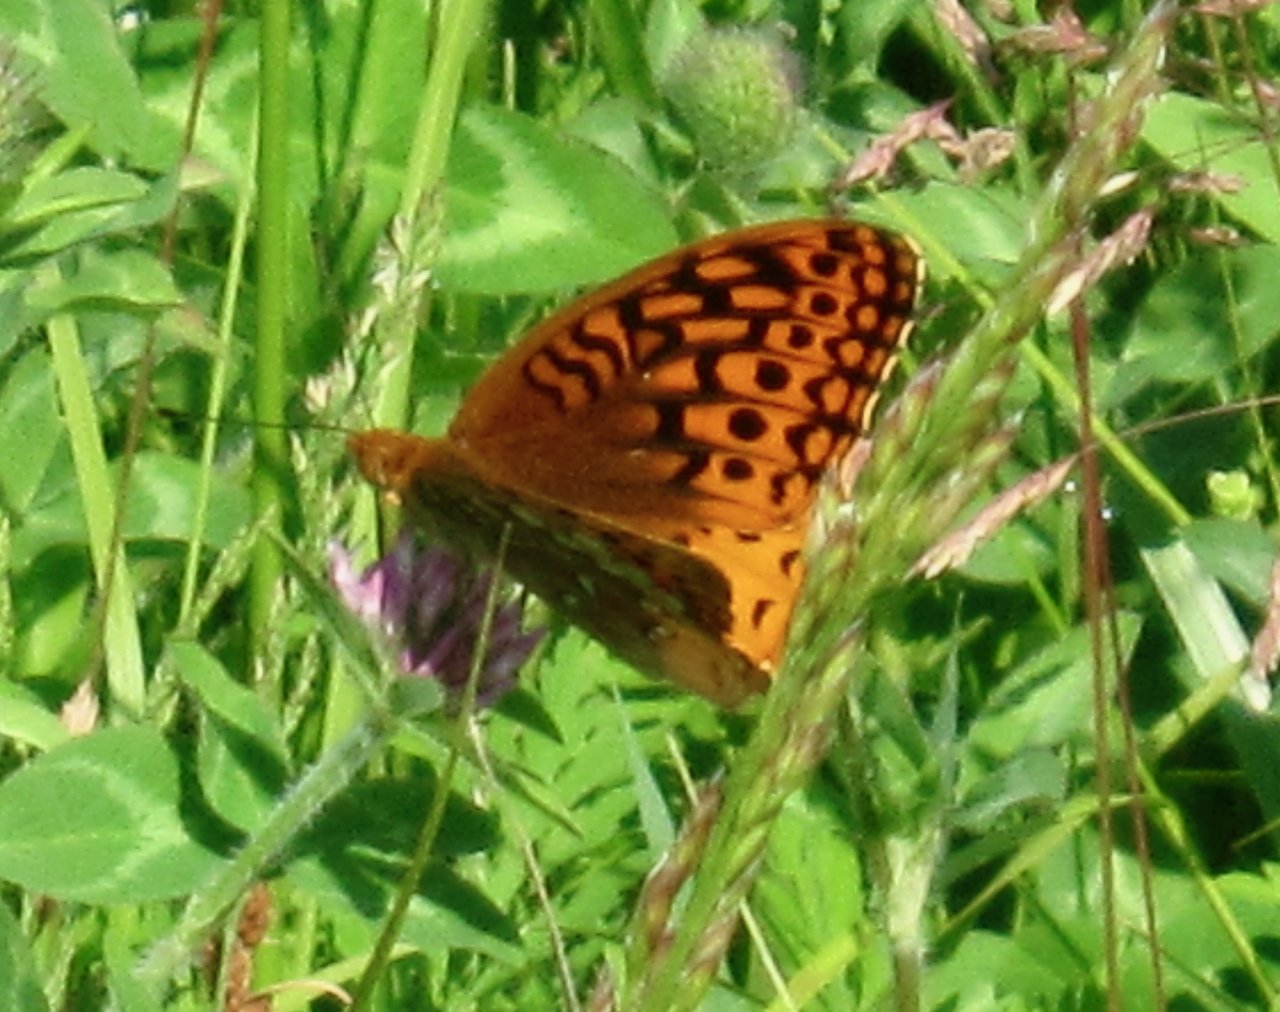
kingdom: Animalia
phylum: Arthropoda
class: Insecta
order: Lepidoptera
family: Nymphalidae
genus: Speyeria
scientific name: Speyeria cybele
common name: Great Spangled Fritillary
